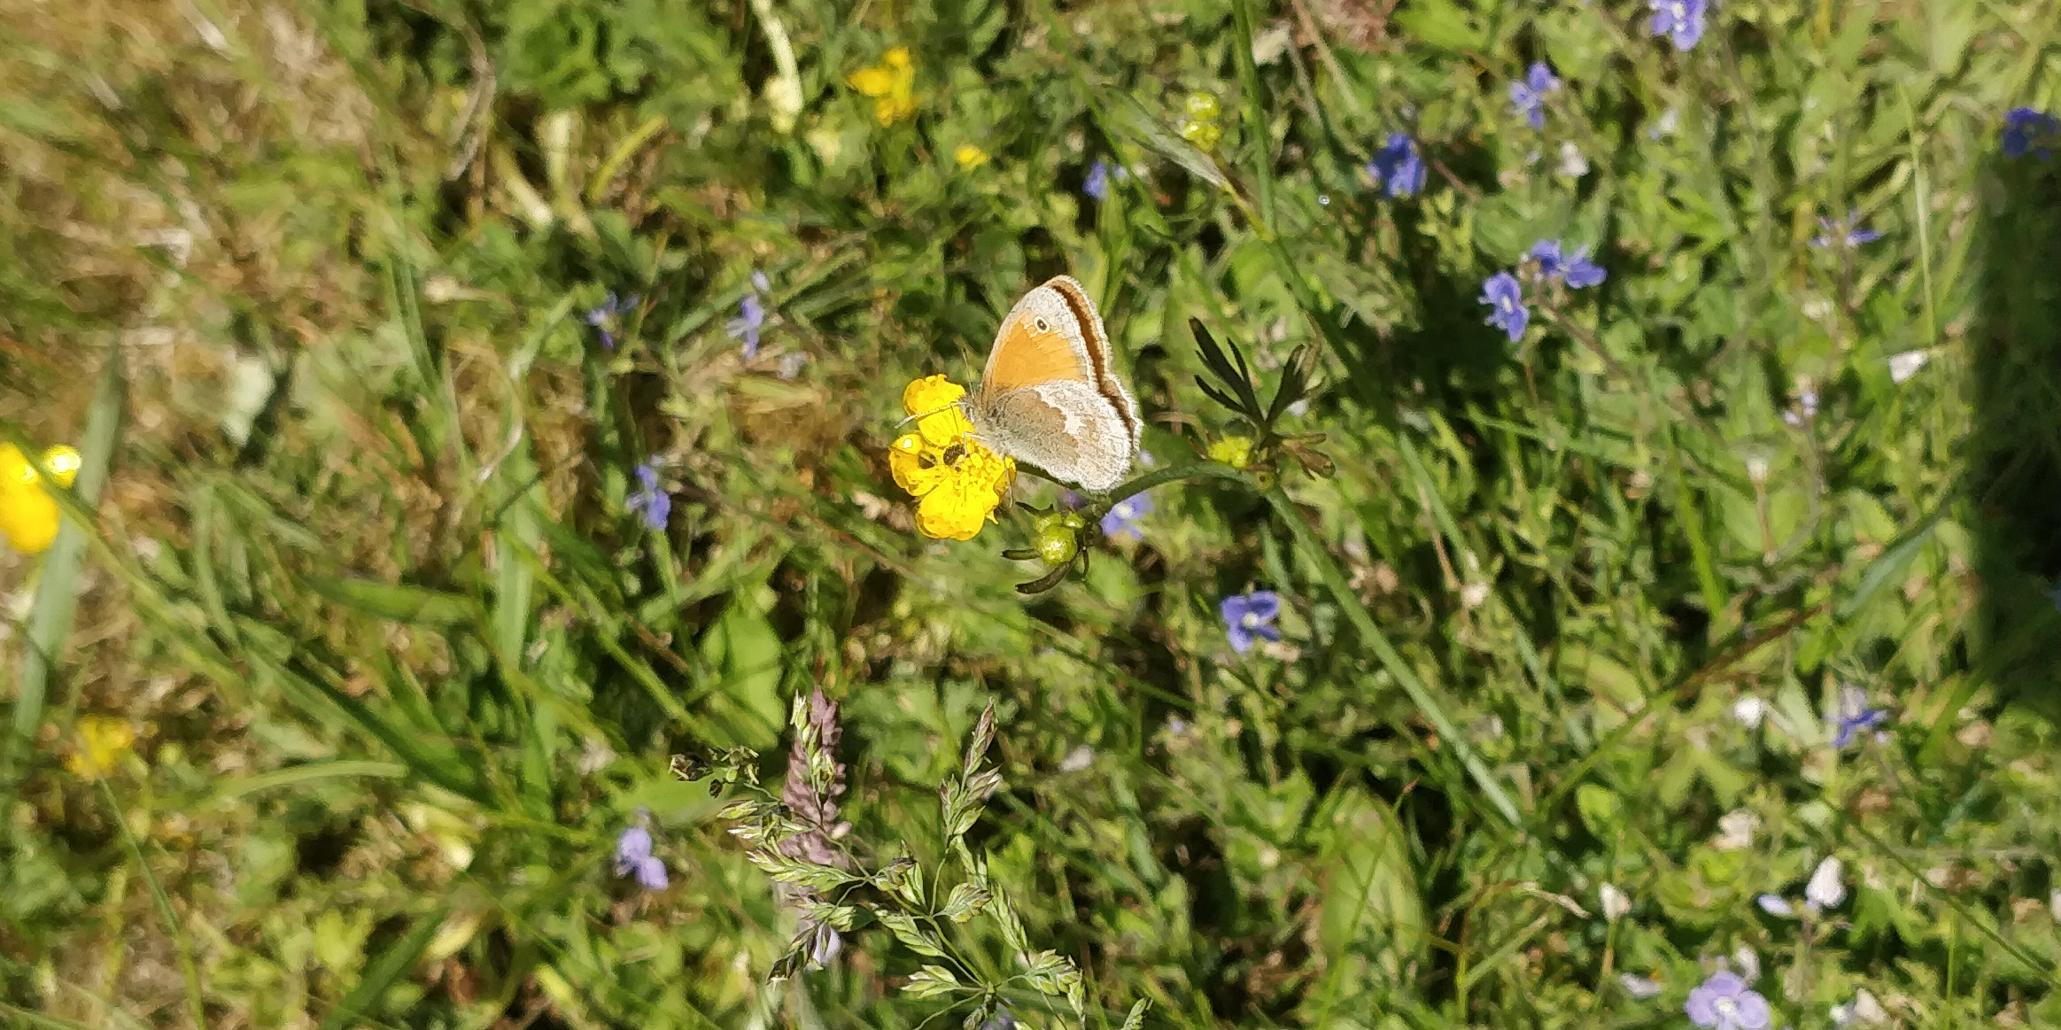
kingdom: Animalia
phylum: Arthropoda
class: Insecta
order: Lepidoptera
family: Nymphalidae
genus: Coenonympha
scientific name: Coenonympha pamphilus
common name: Okkergul randøje
